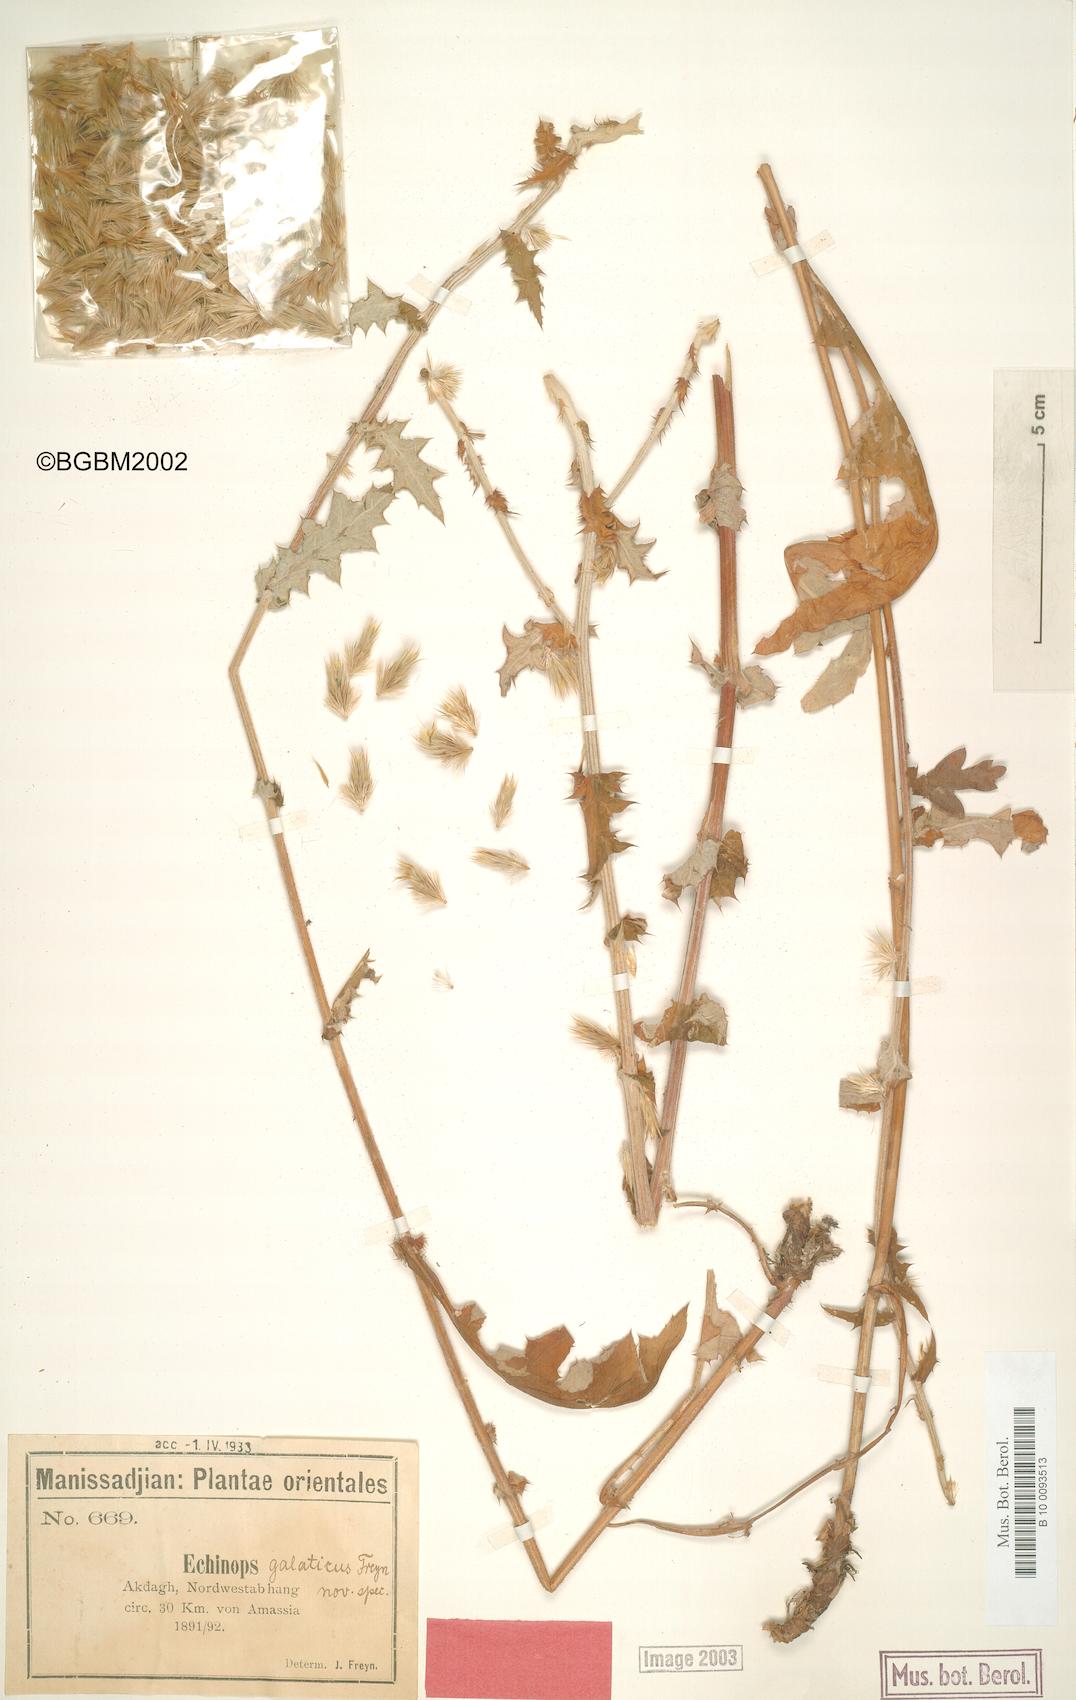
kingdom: Plantae
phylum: Tracheophyta
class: Magnoliopsida
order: Asterales
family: Asteraceae
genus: Echinops
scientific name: Echinops ossicus
